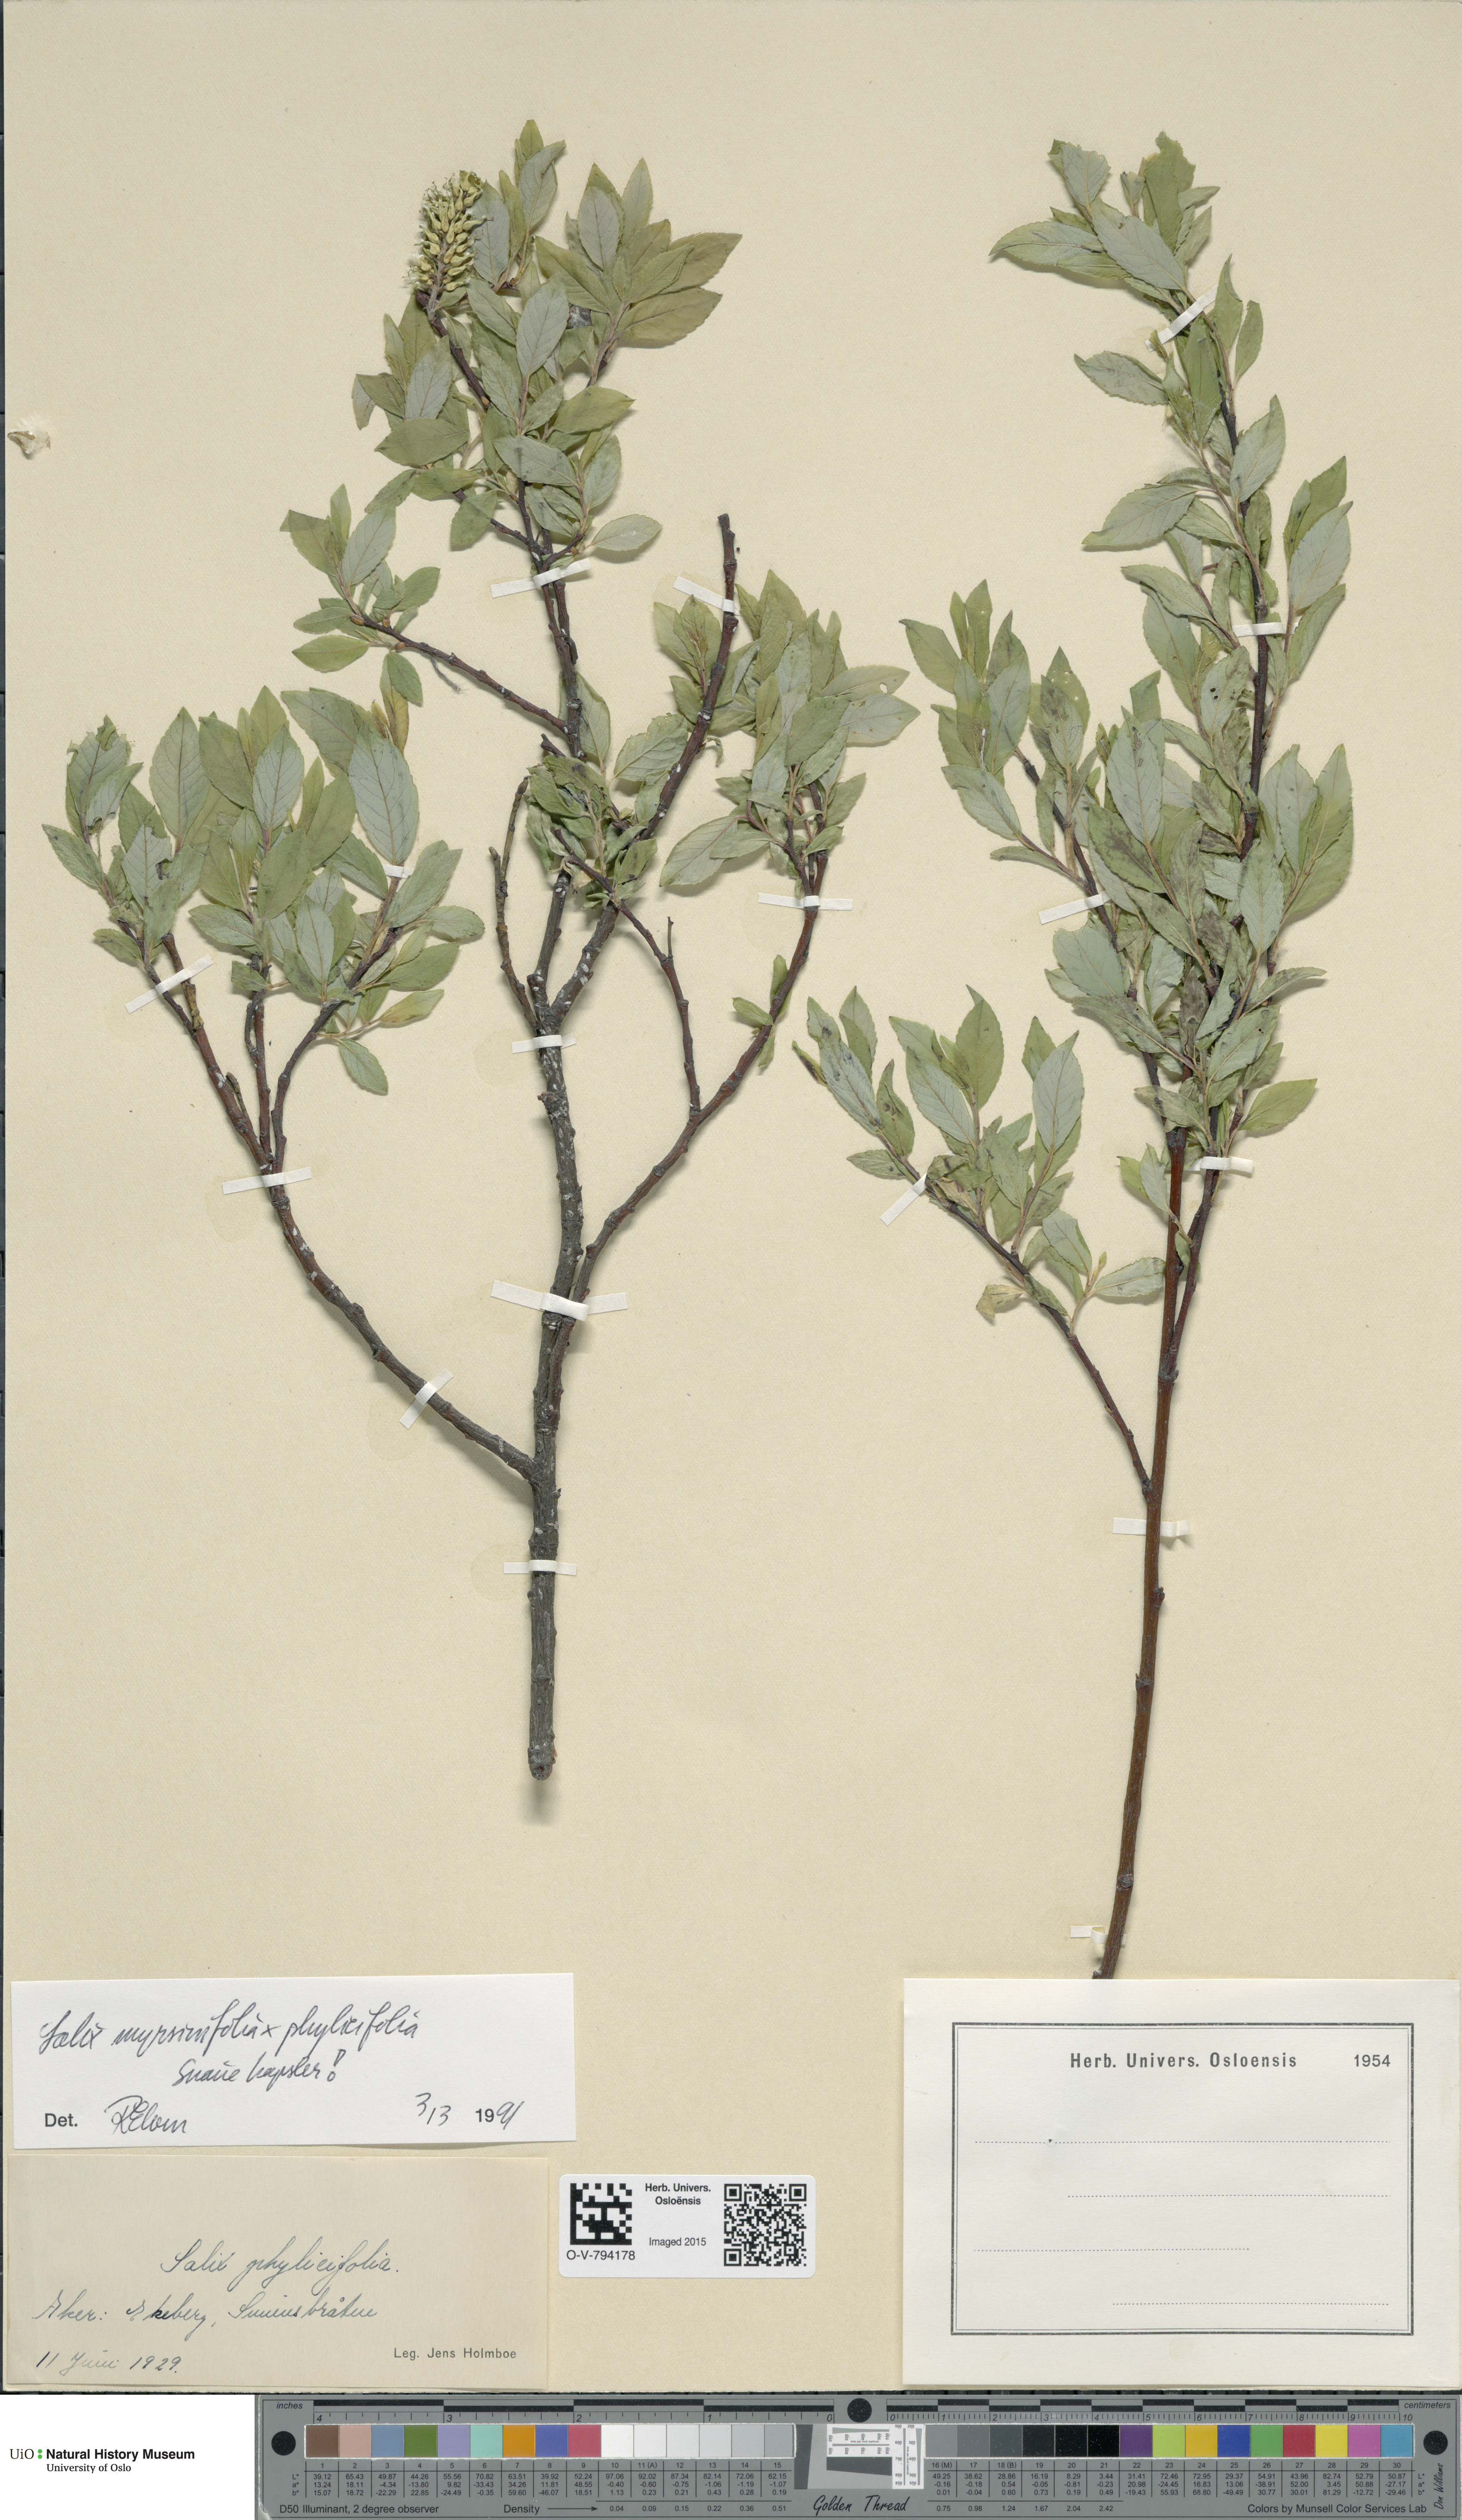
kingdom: Plantae
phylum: Tracheophyta
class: Magnoliopsida
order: Malpighiales
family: Salicaceae
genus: Salix
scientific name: Salix myrsinifolia
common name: Dark-leaved willow
